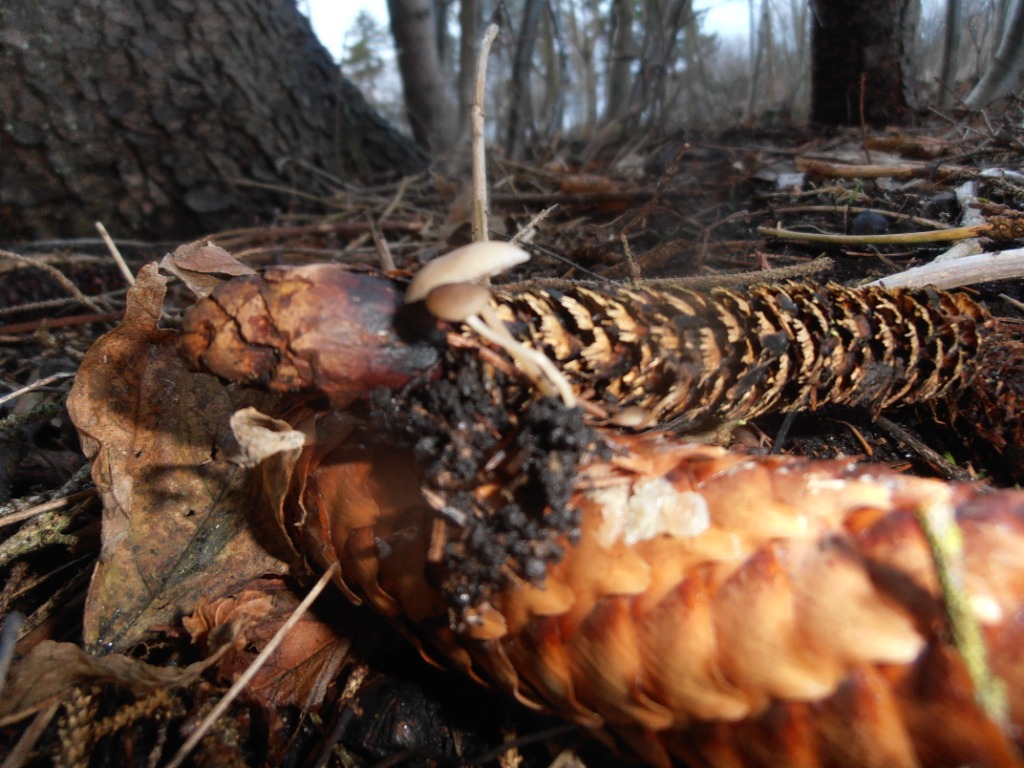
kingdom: Fungi
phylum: Basidiomycota
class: Agaricomycetes
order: Agaricales
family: Physalacriaceae
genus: Strobilurus
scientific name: Strobilurus esculentus
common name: gran-koglehat
